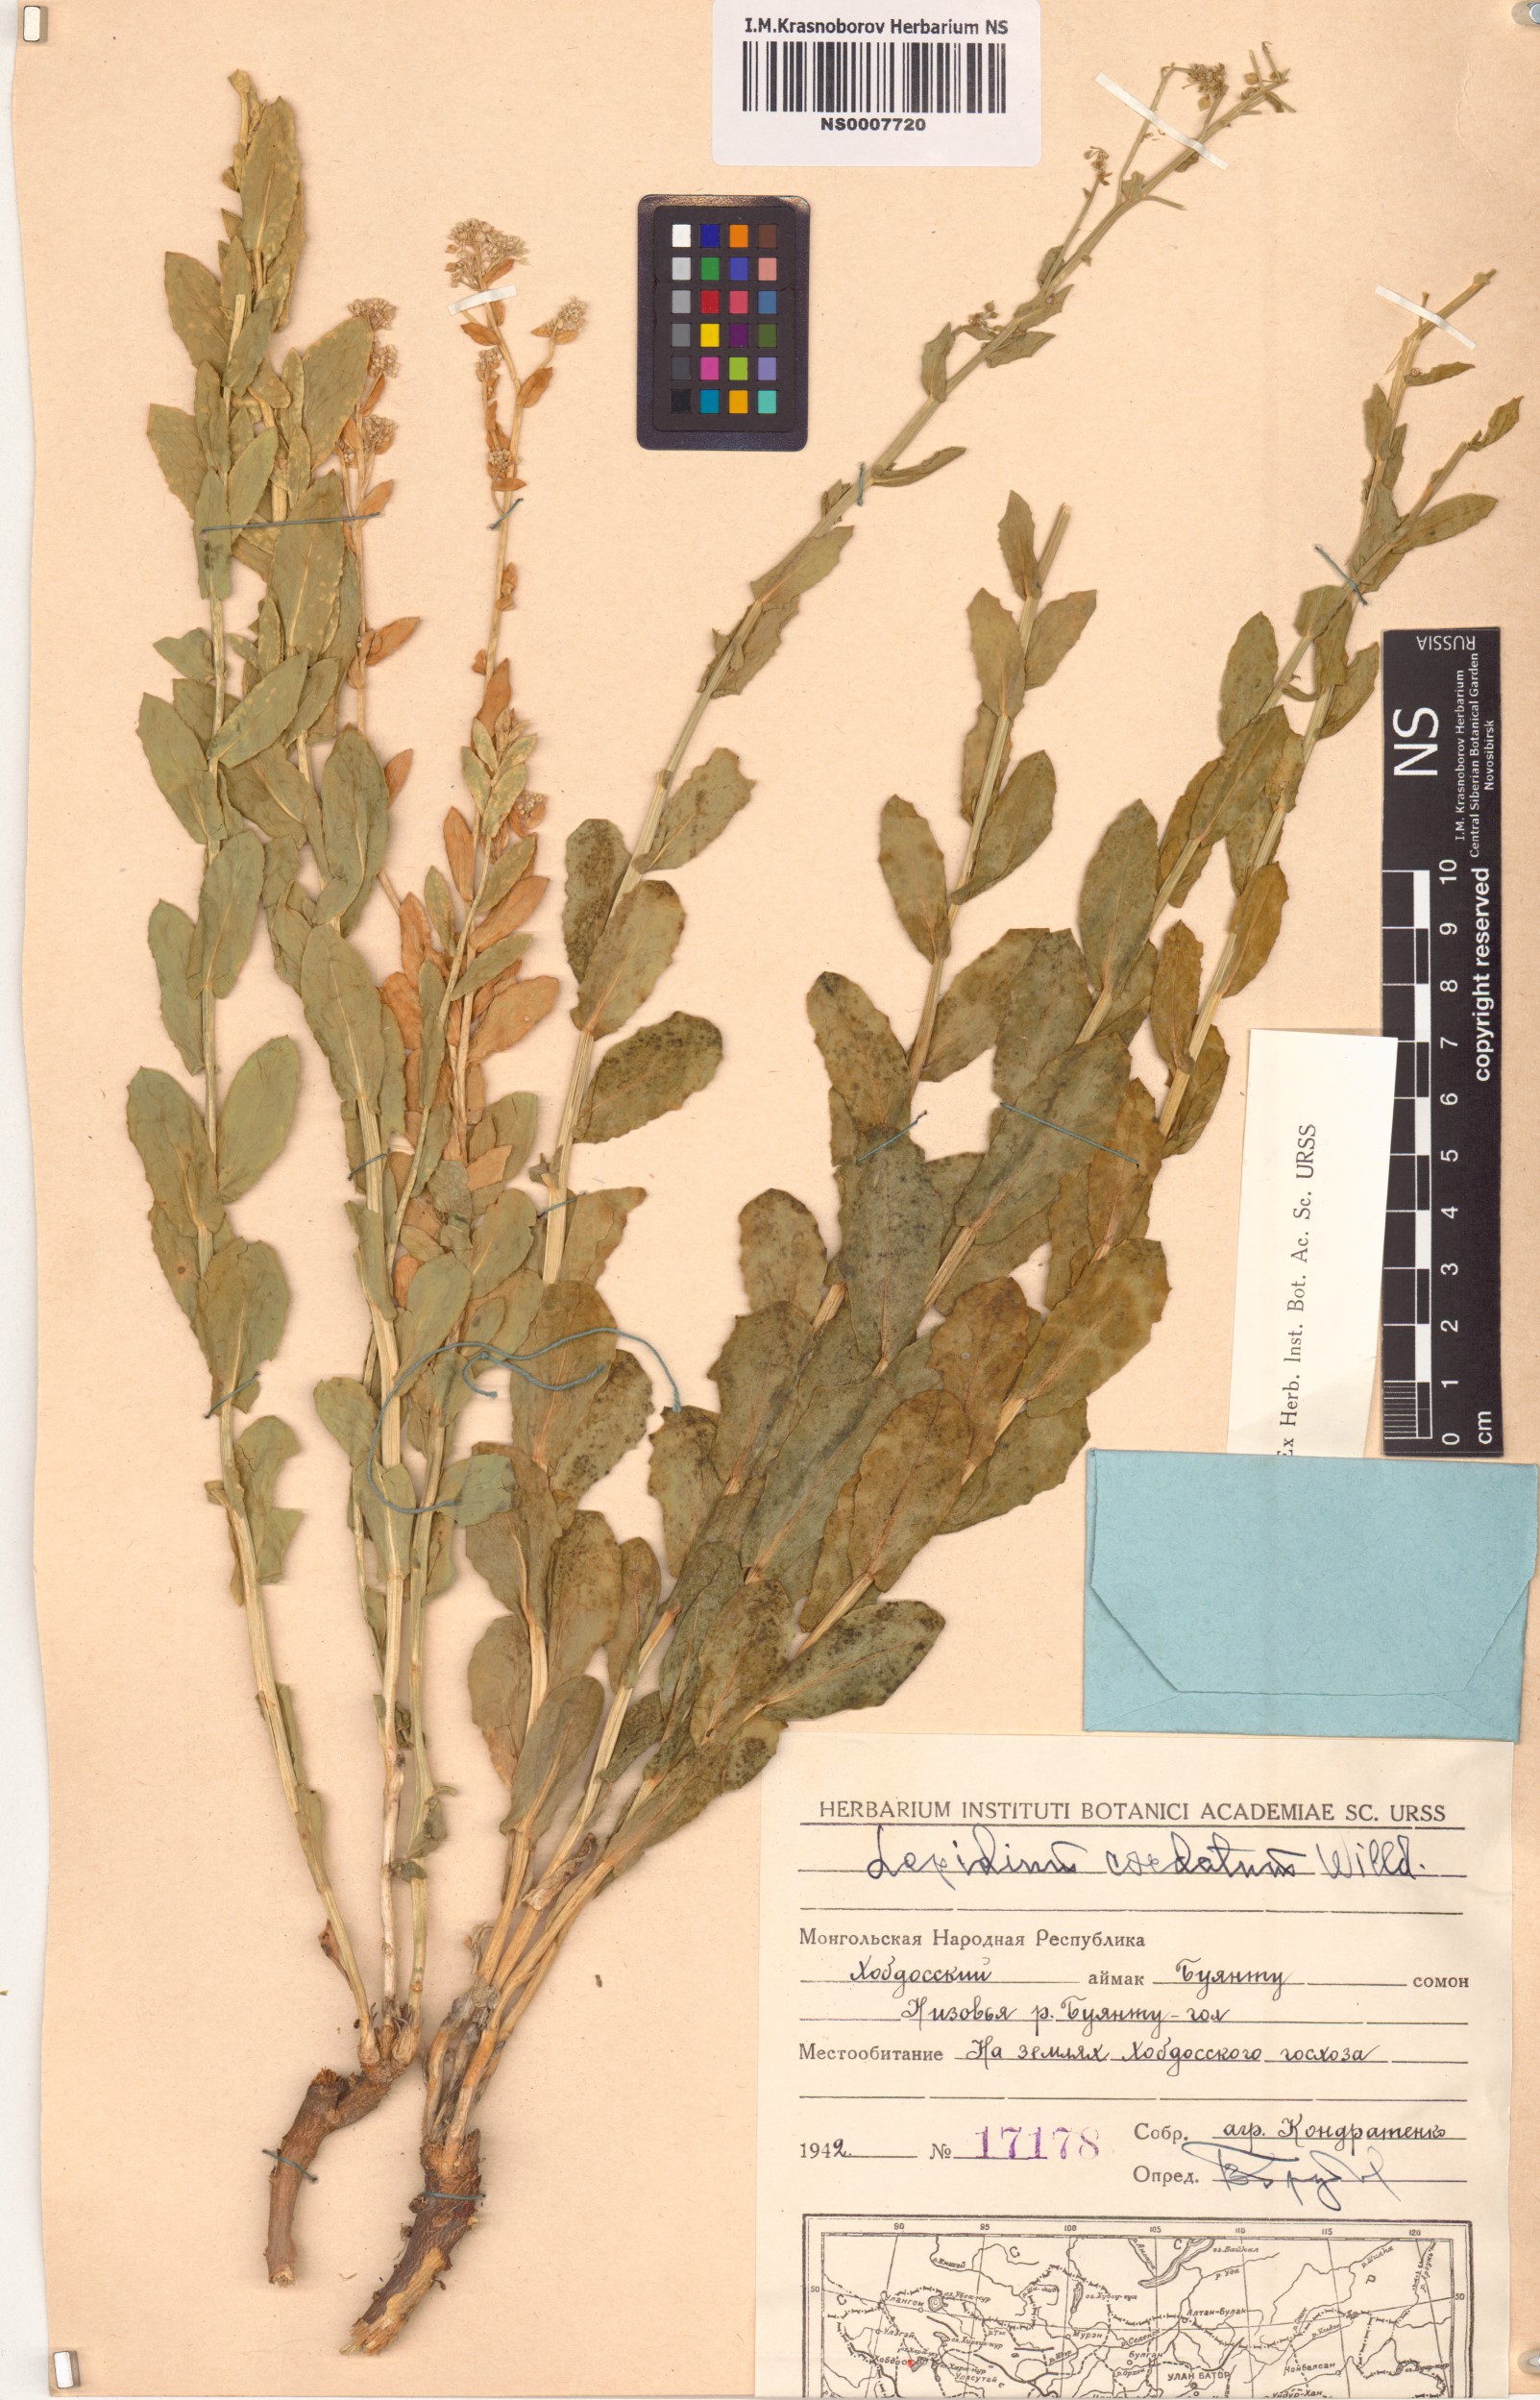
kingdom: Plantae
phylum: Tracheophyta
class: Magnoliopsida
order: Brassicales
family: Brassicaceae
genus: Lepidium
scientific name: Lepidium cordatum
